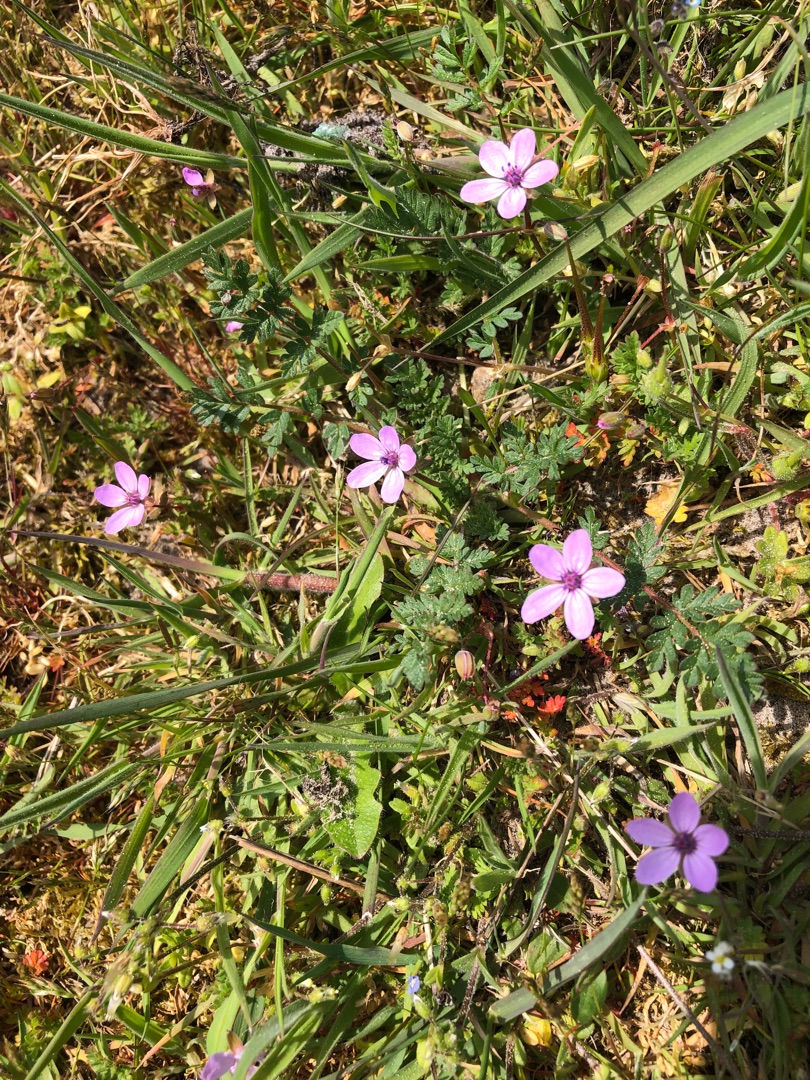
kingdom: Plantae
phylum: Tracheophyta
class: Magnoliopsida
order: Geraniales
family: Geraniaceae
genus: Erodium
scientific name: Erodium cicutarium
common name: Hejrenæb
